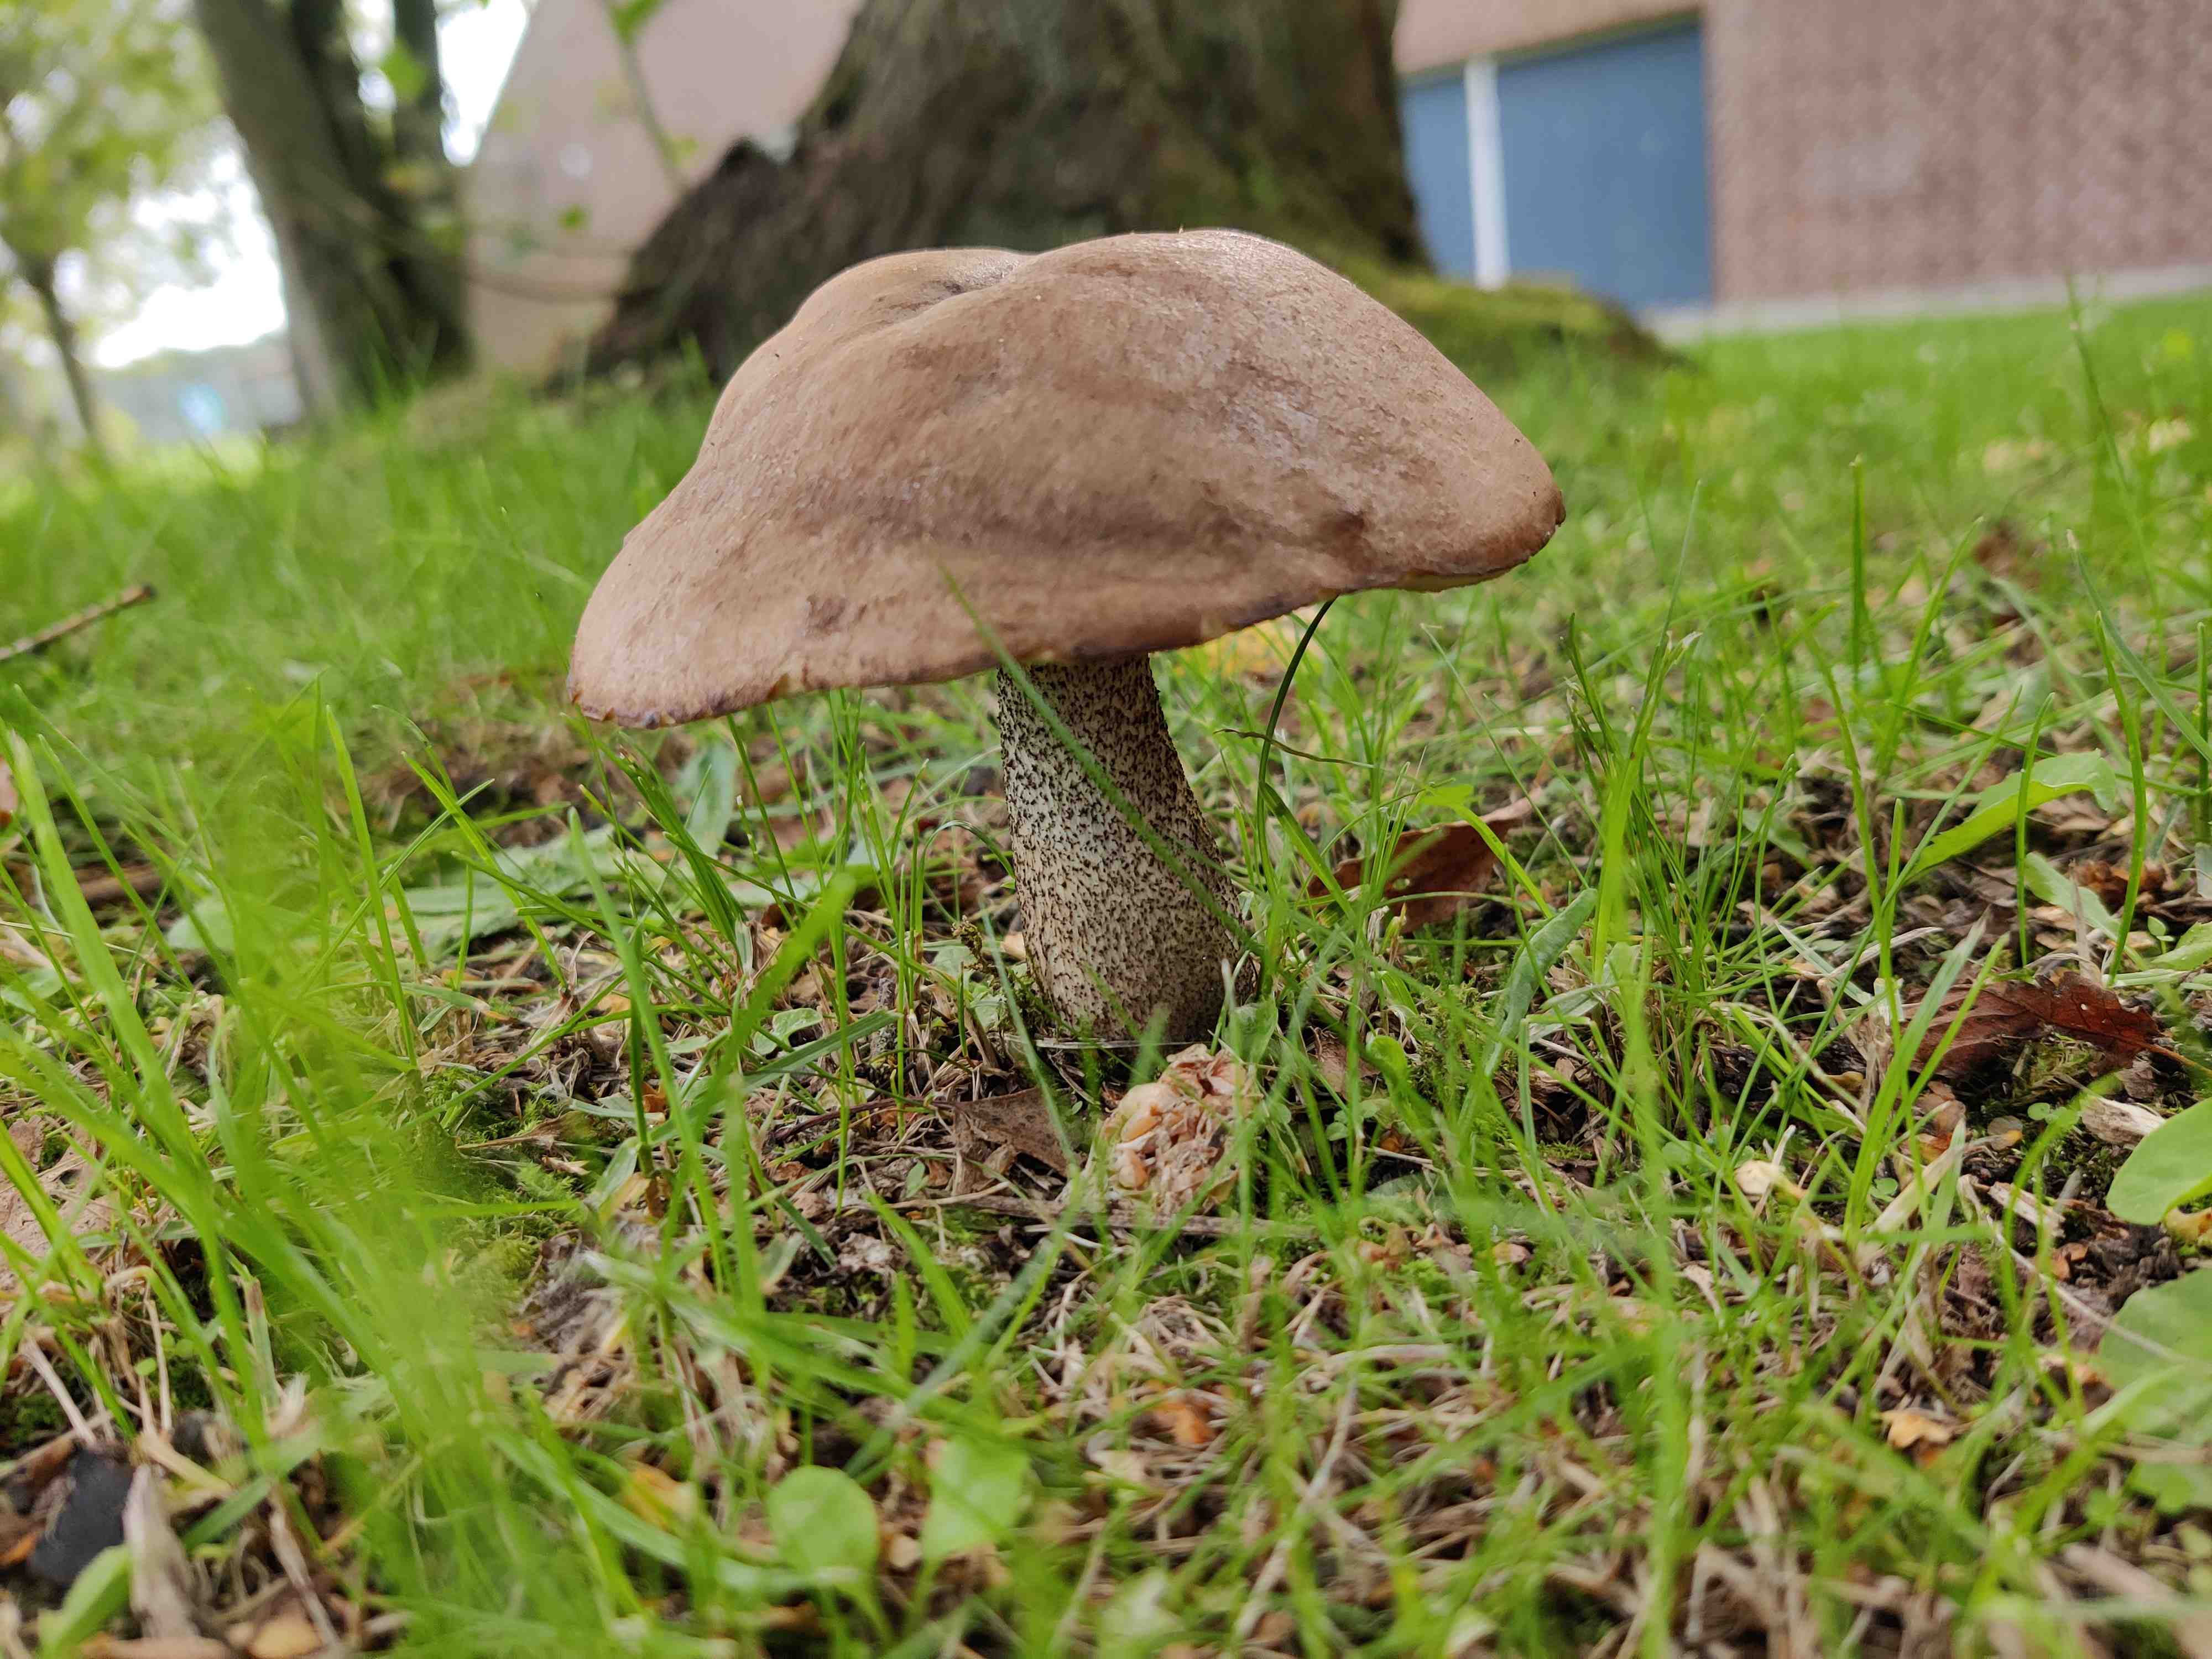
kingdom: Fungi
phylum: Basidiomycota
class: Agaricomycetes
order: Boletales
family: Boletaceae
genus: Leccinum
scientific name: Leccinum scabrum
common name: brun skælrørhat
